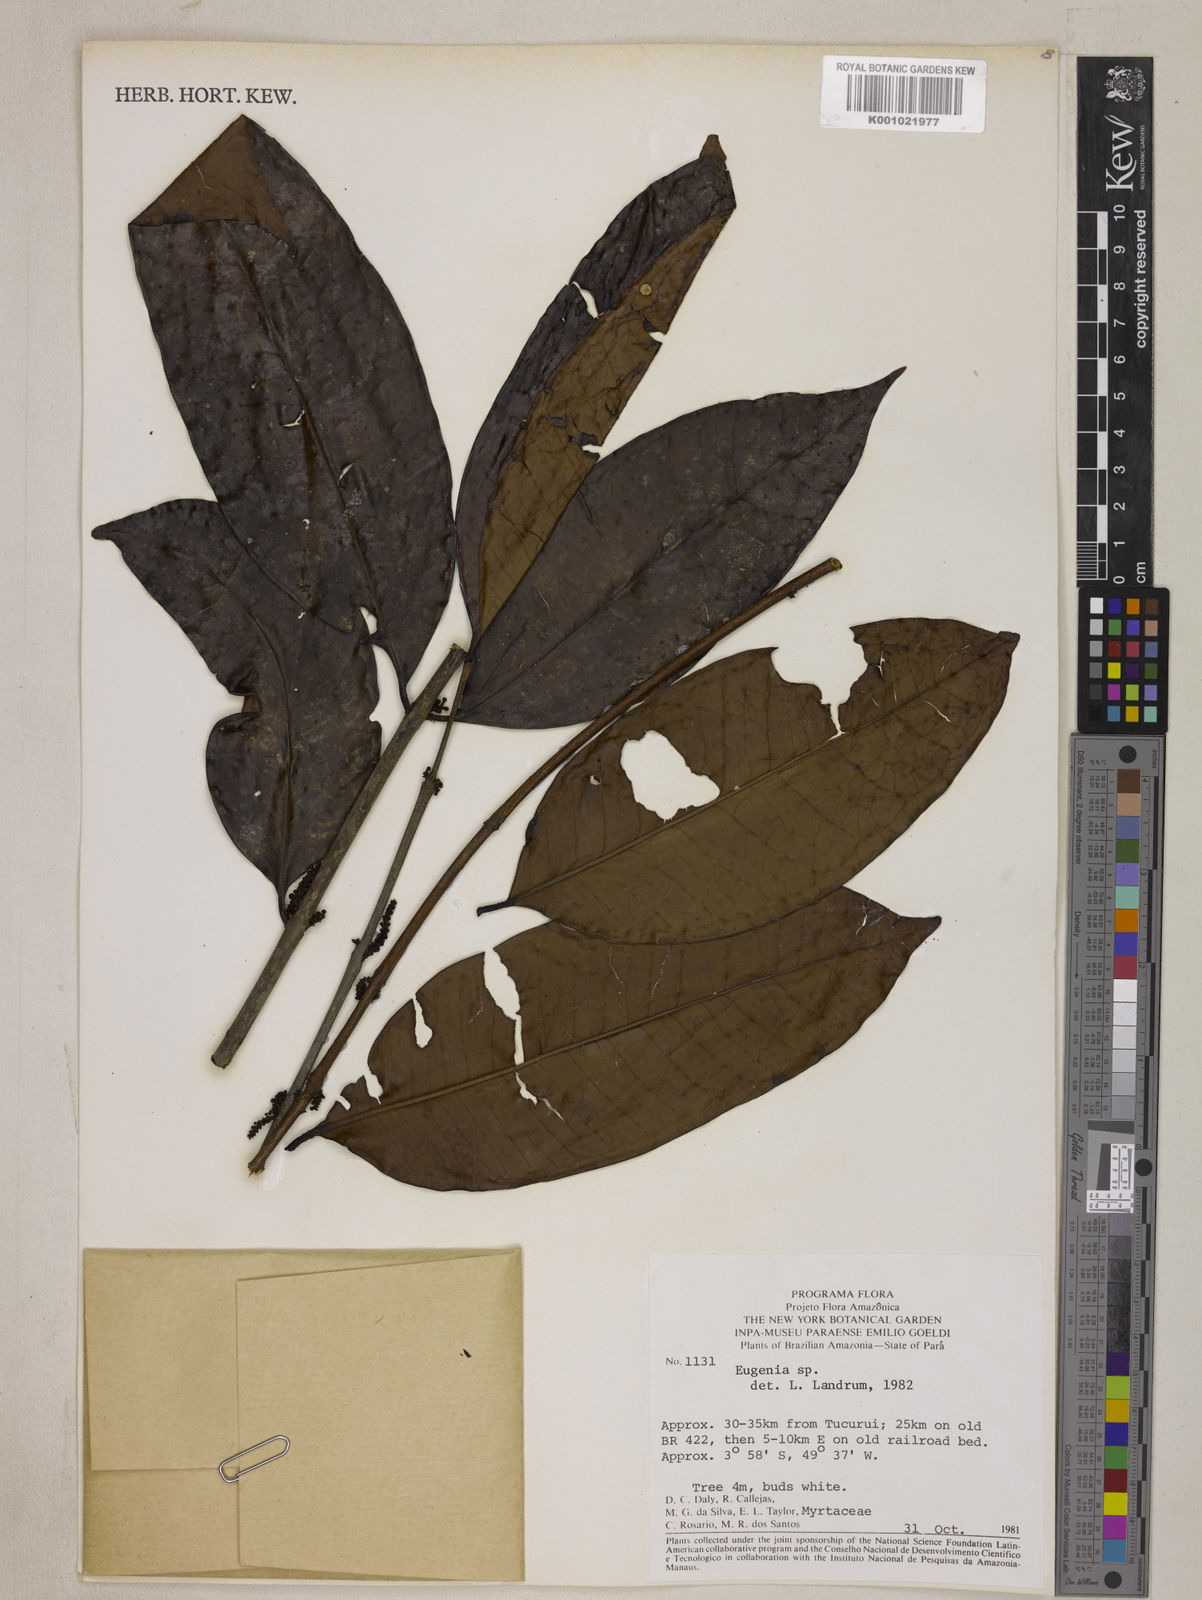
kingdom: Plantae
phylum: Tracheophyta
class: Magnoliopsida
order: Myrtales
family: Myrtaceae
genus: Eugenia
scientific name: Eugenia candolleana
